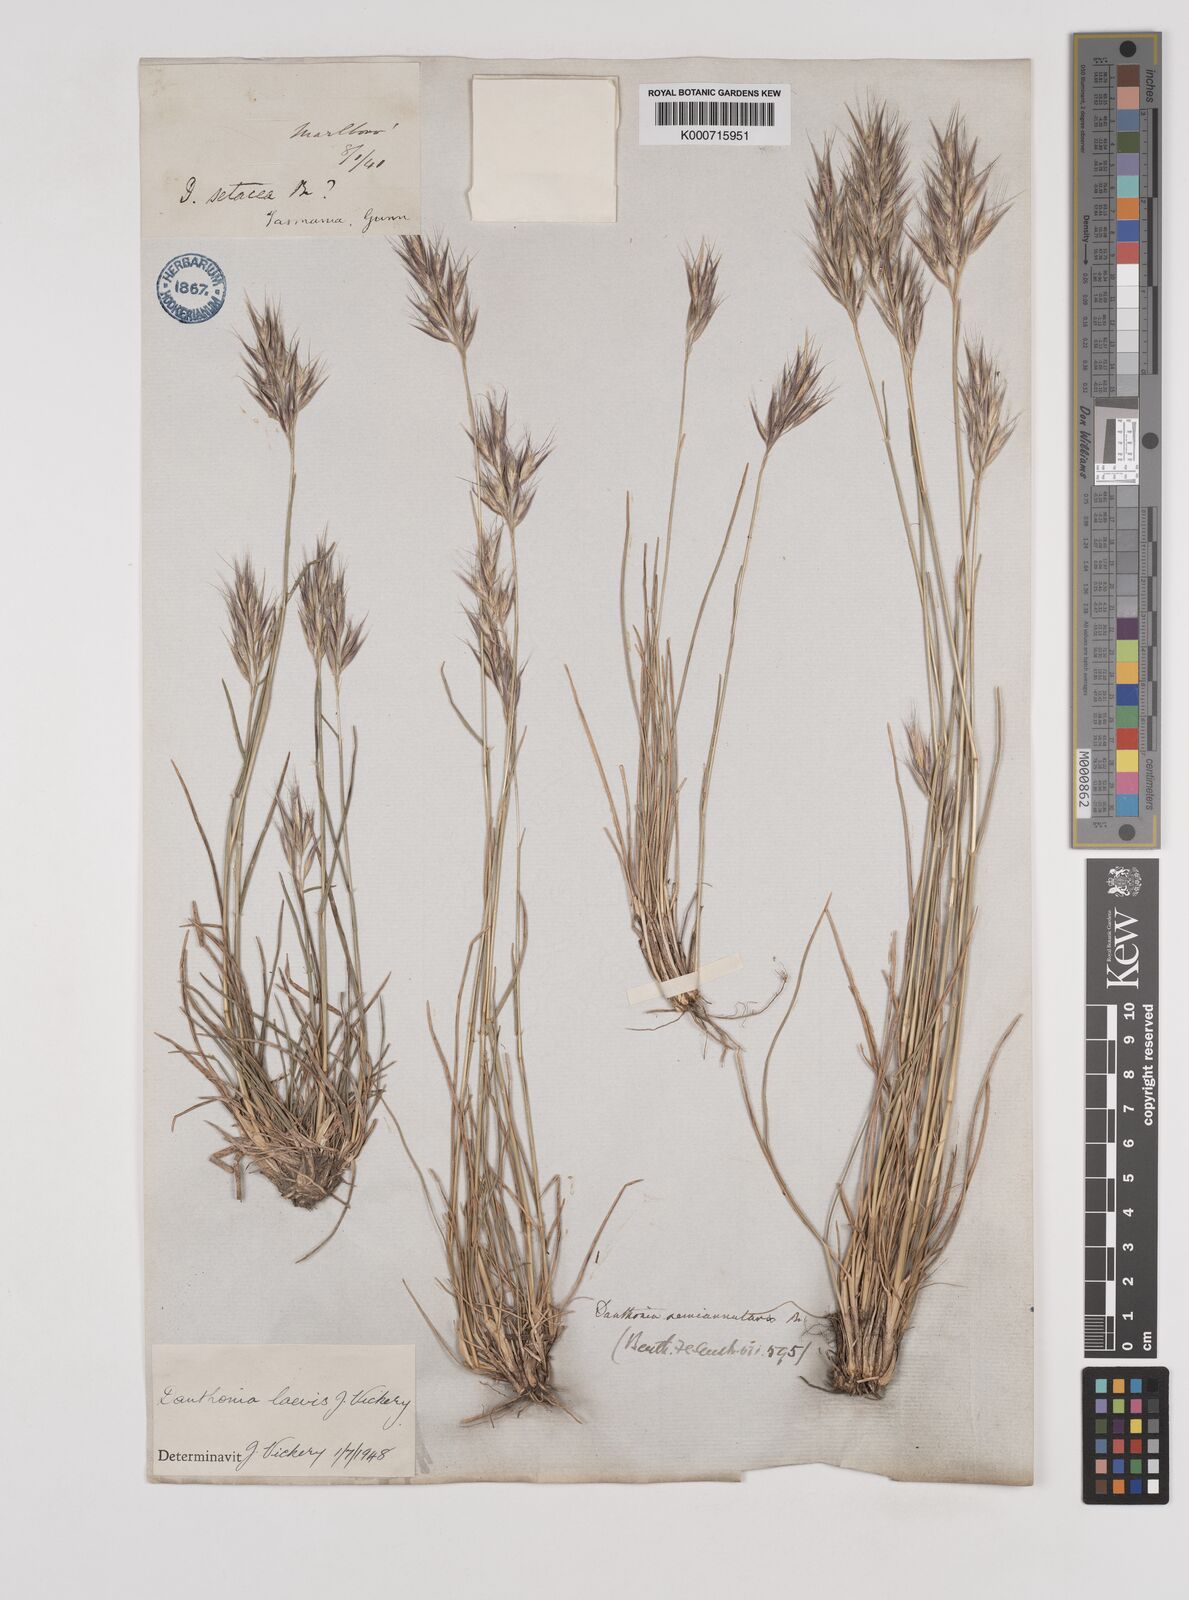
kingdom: Plantae
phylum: Tracheophyta
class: Liliopsida
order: Poales
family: Poaceae
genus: Rytidosperma
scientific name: Rytidosperma laeve
